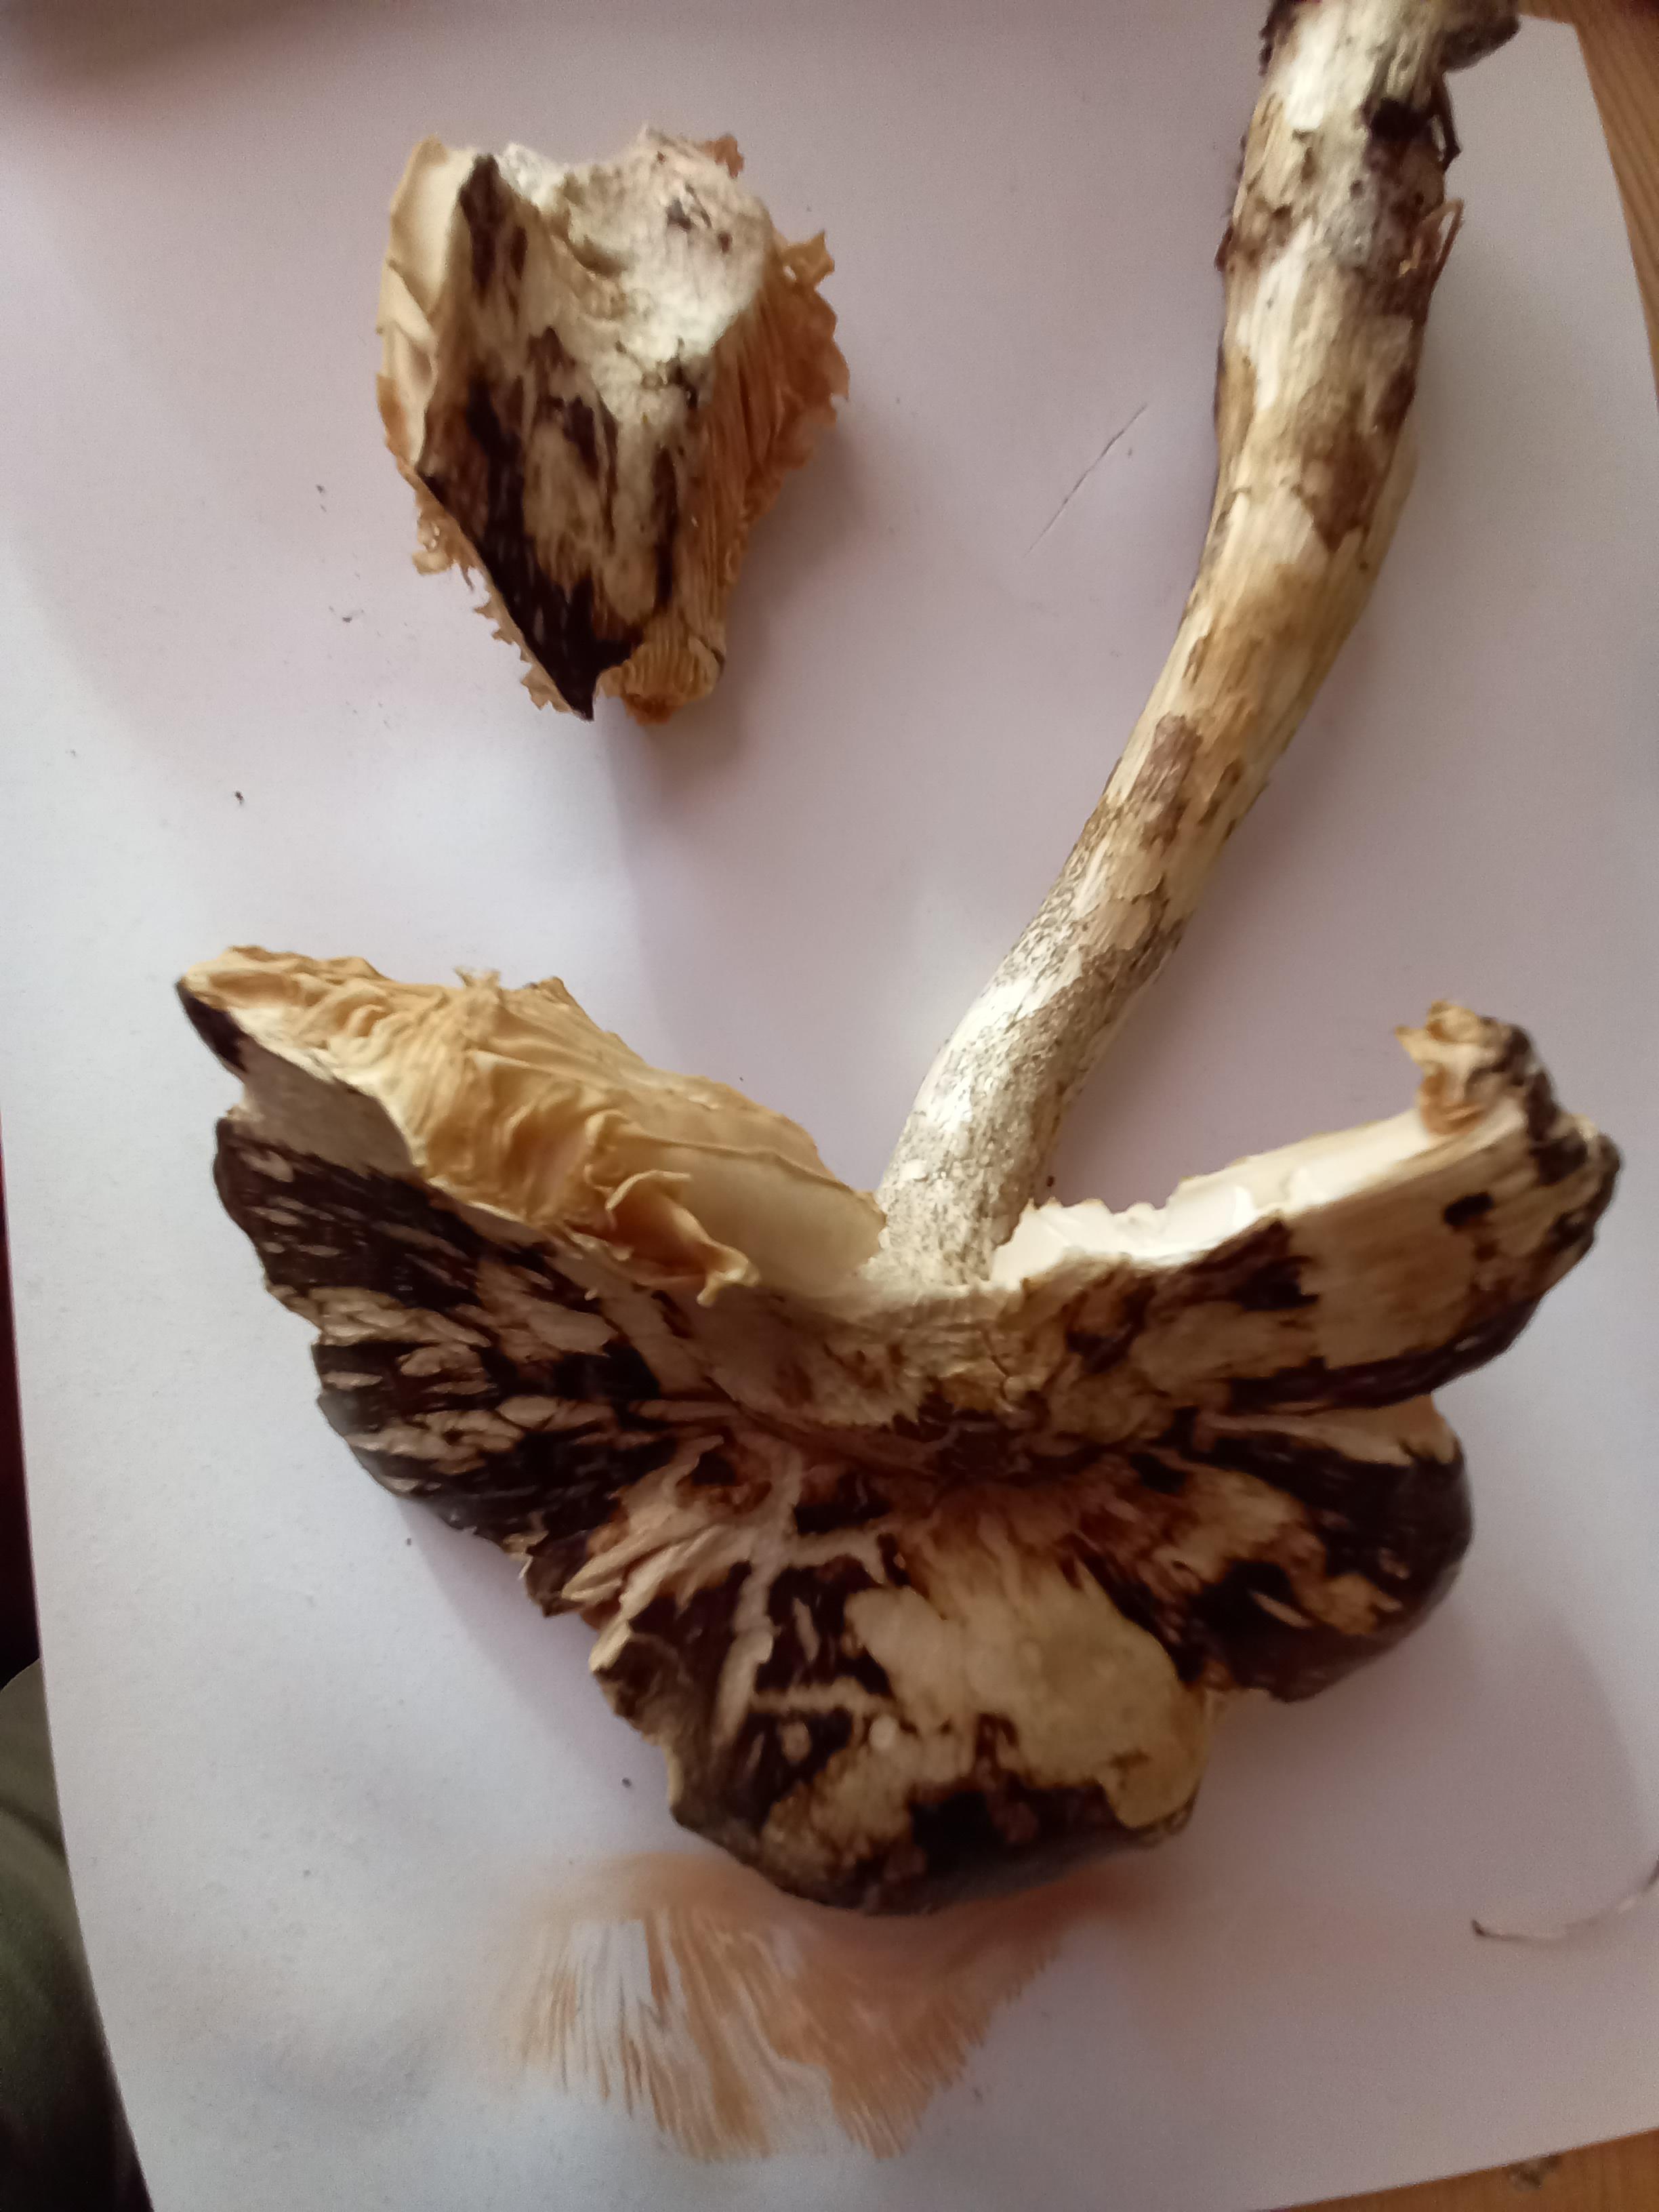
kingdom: Fungi
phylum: Basidiomycota
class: Agaricomycetes
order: Agaricales
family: Pluteaceae
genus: Pluteus
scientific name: Pluteus cervinus
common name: sodfarvet skærmhat
